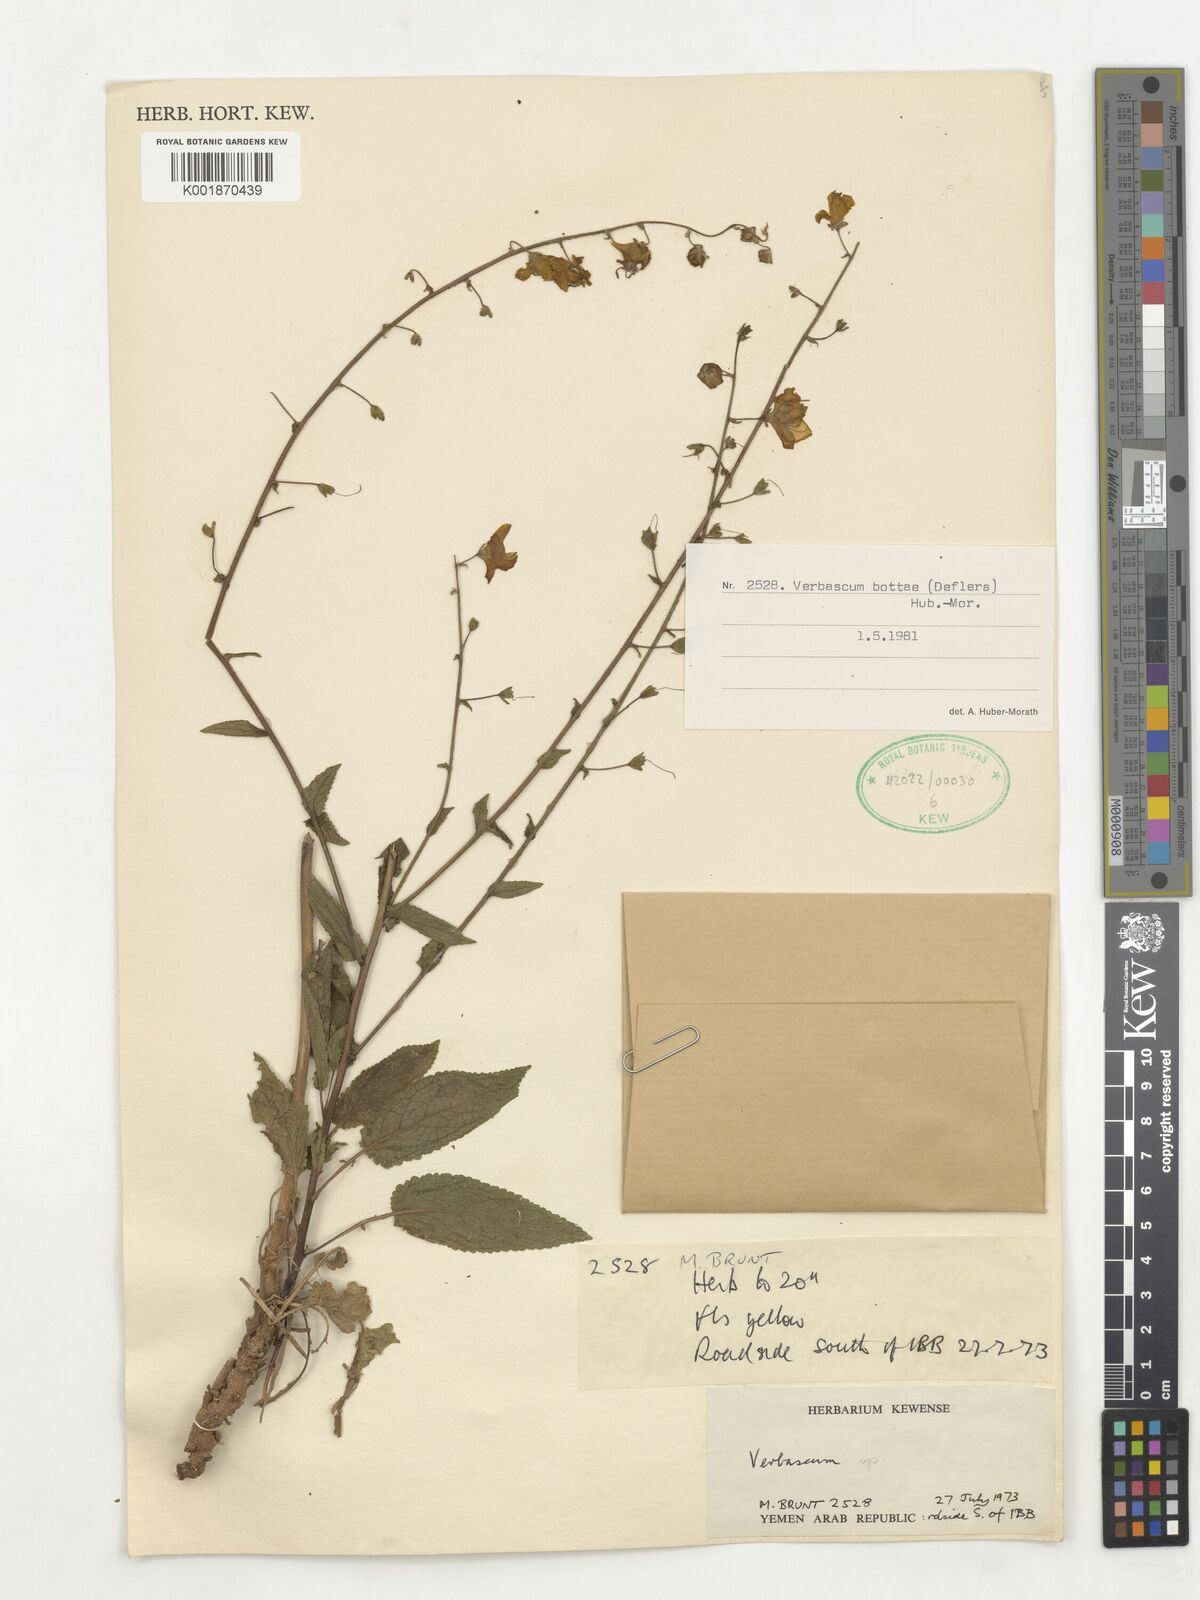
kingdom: Plantae
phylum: Tracheophyta
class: Magnoliopsida
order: Lamiales
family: Scrophulariaceae
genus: Verbascum
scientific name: Verbascum
